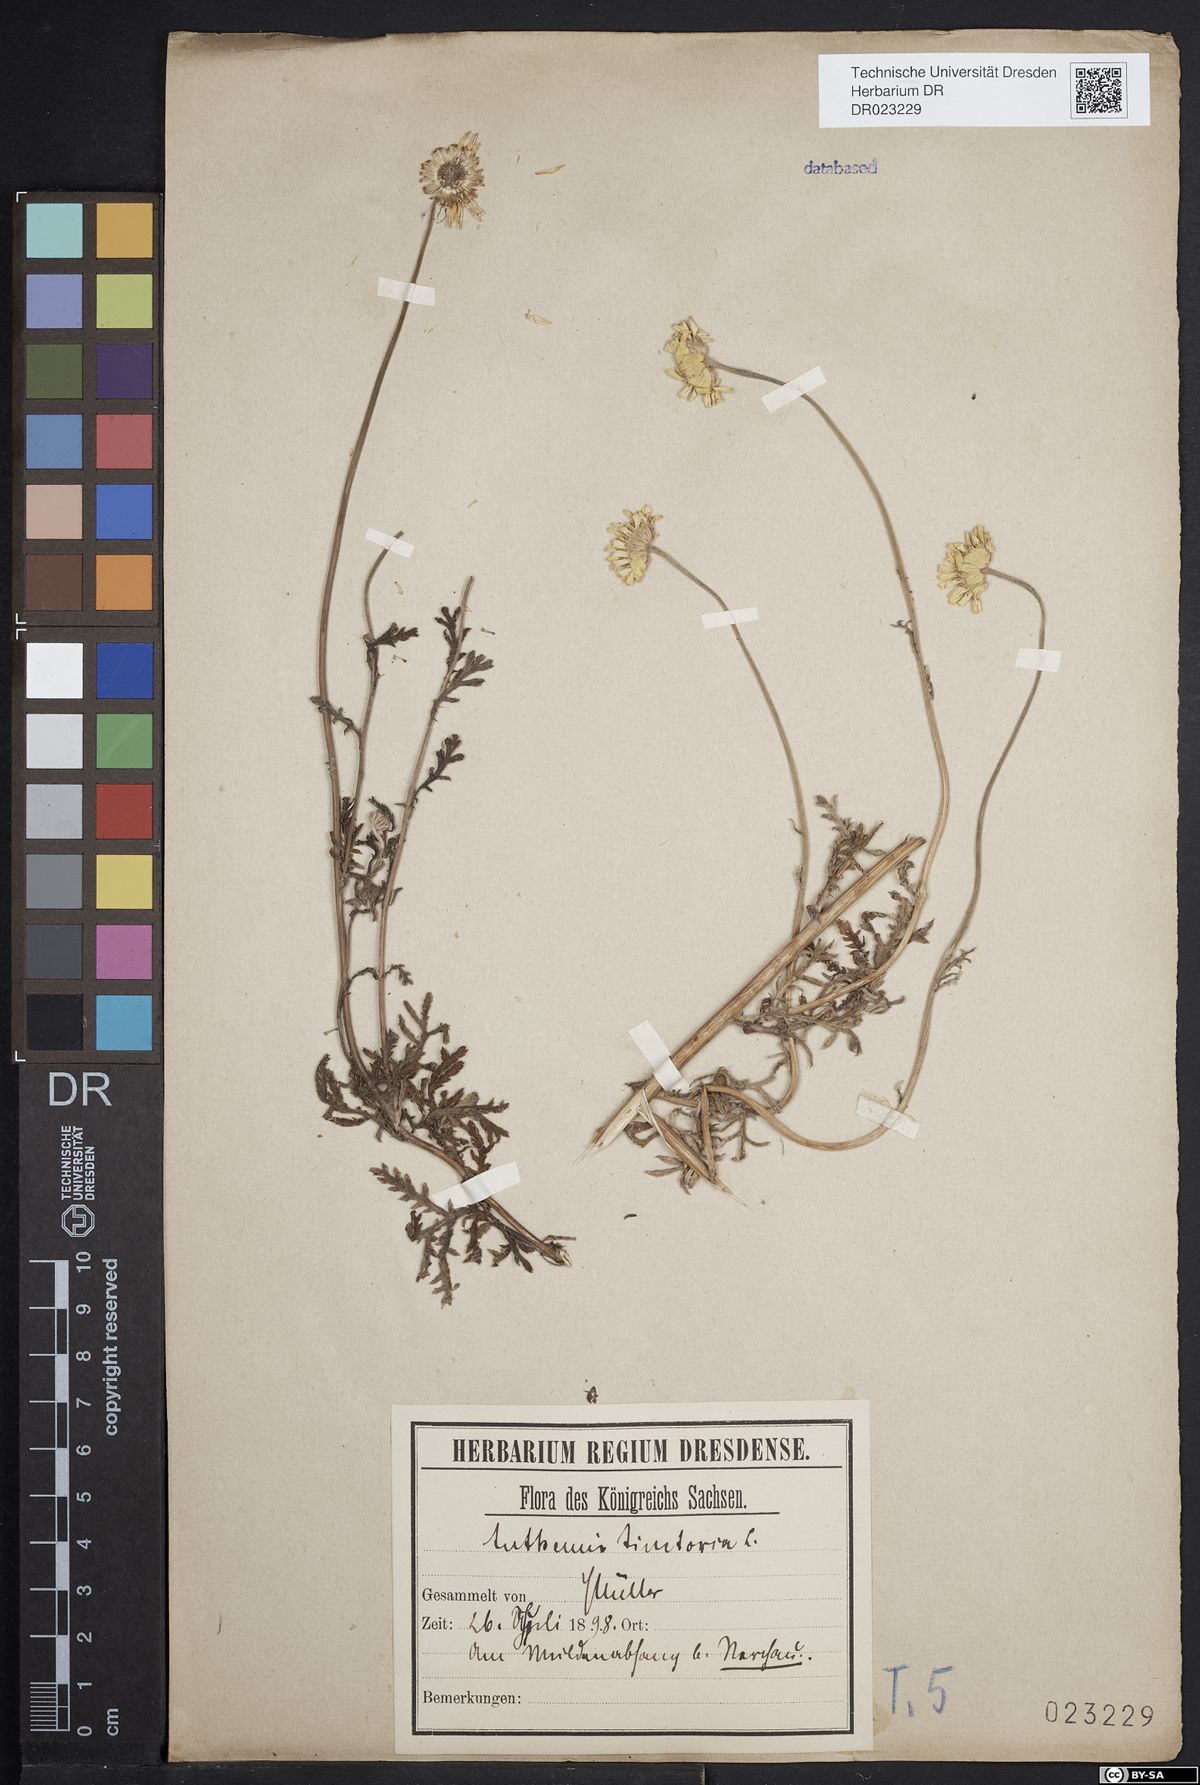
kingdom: Plantae
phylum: Tracheophyta
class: Magnoliopsida
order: Asterales
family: Asteraceae
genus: Cota
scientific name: Cota tinctoria
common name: Golden chamomile
